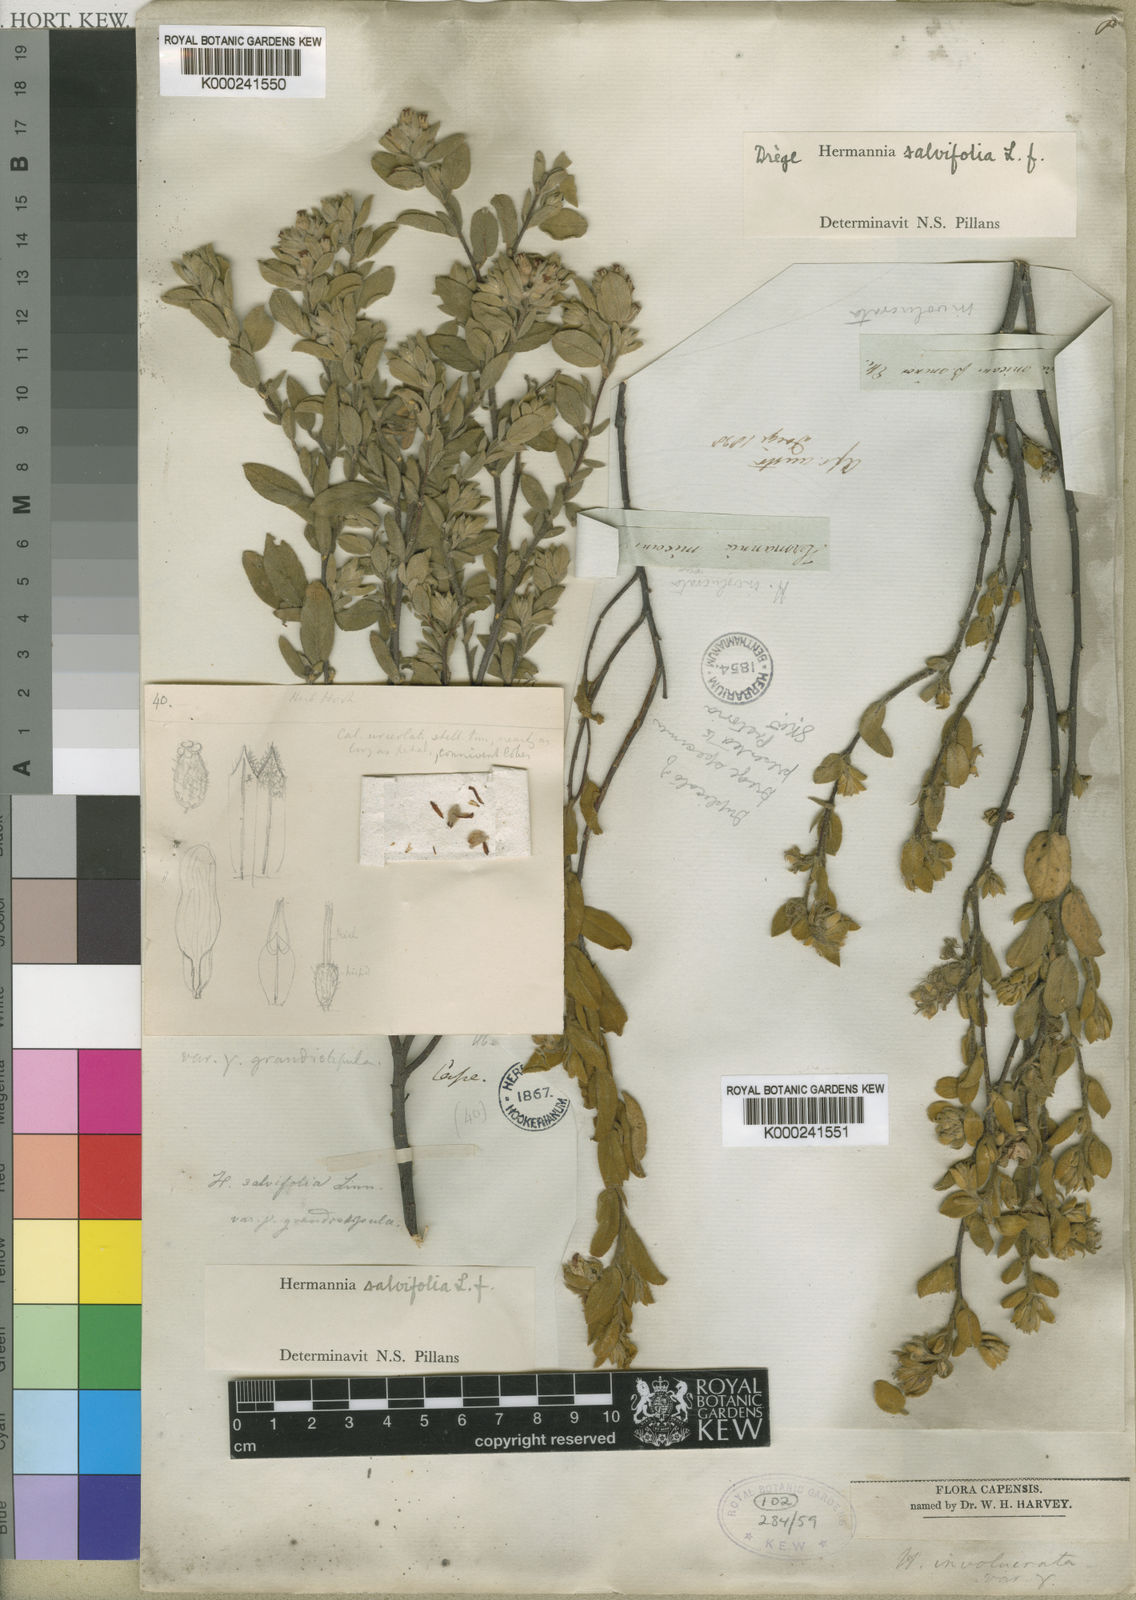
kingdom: Plantae
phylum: Tracheophyta
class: Magnoliopsida
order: Malvales
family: Malvaceae
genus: Hermannia
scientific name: Hermannia salviifolia
